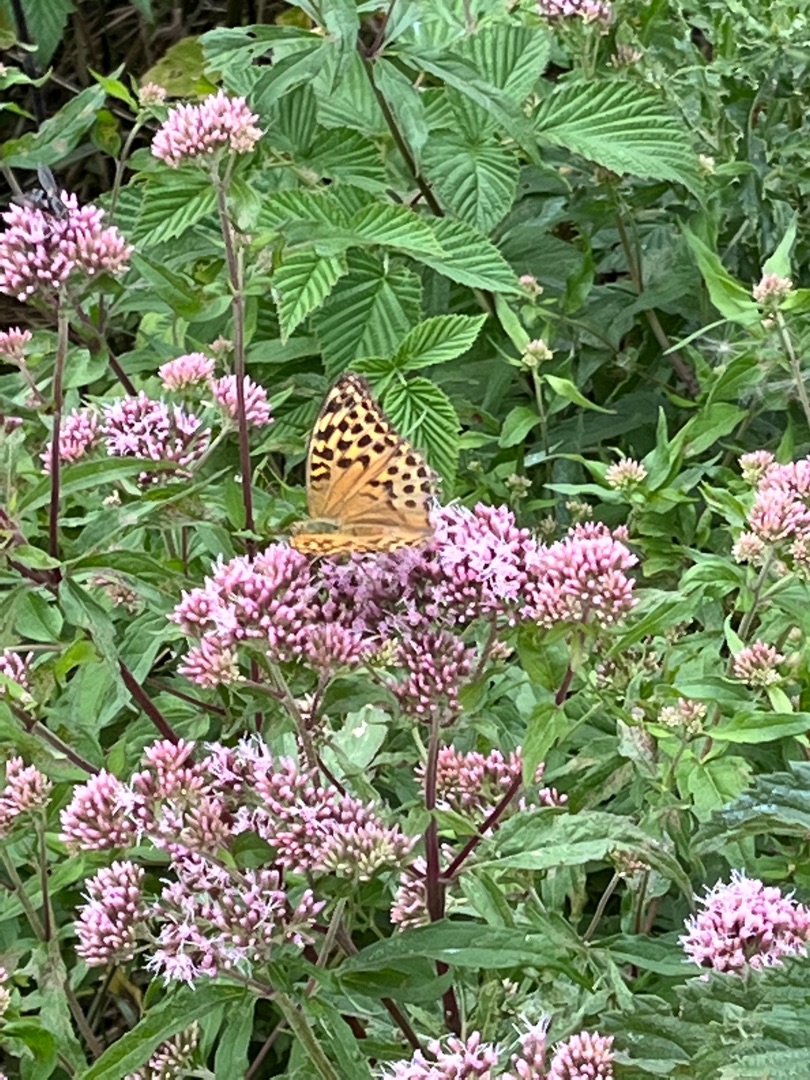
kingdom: Animalia
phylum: Arthropoda
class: Insecta
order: Lepidoptera
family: Nymphalidae
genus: Argynnis
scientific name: Argynnis paphia
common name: Kejserkåbe
